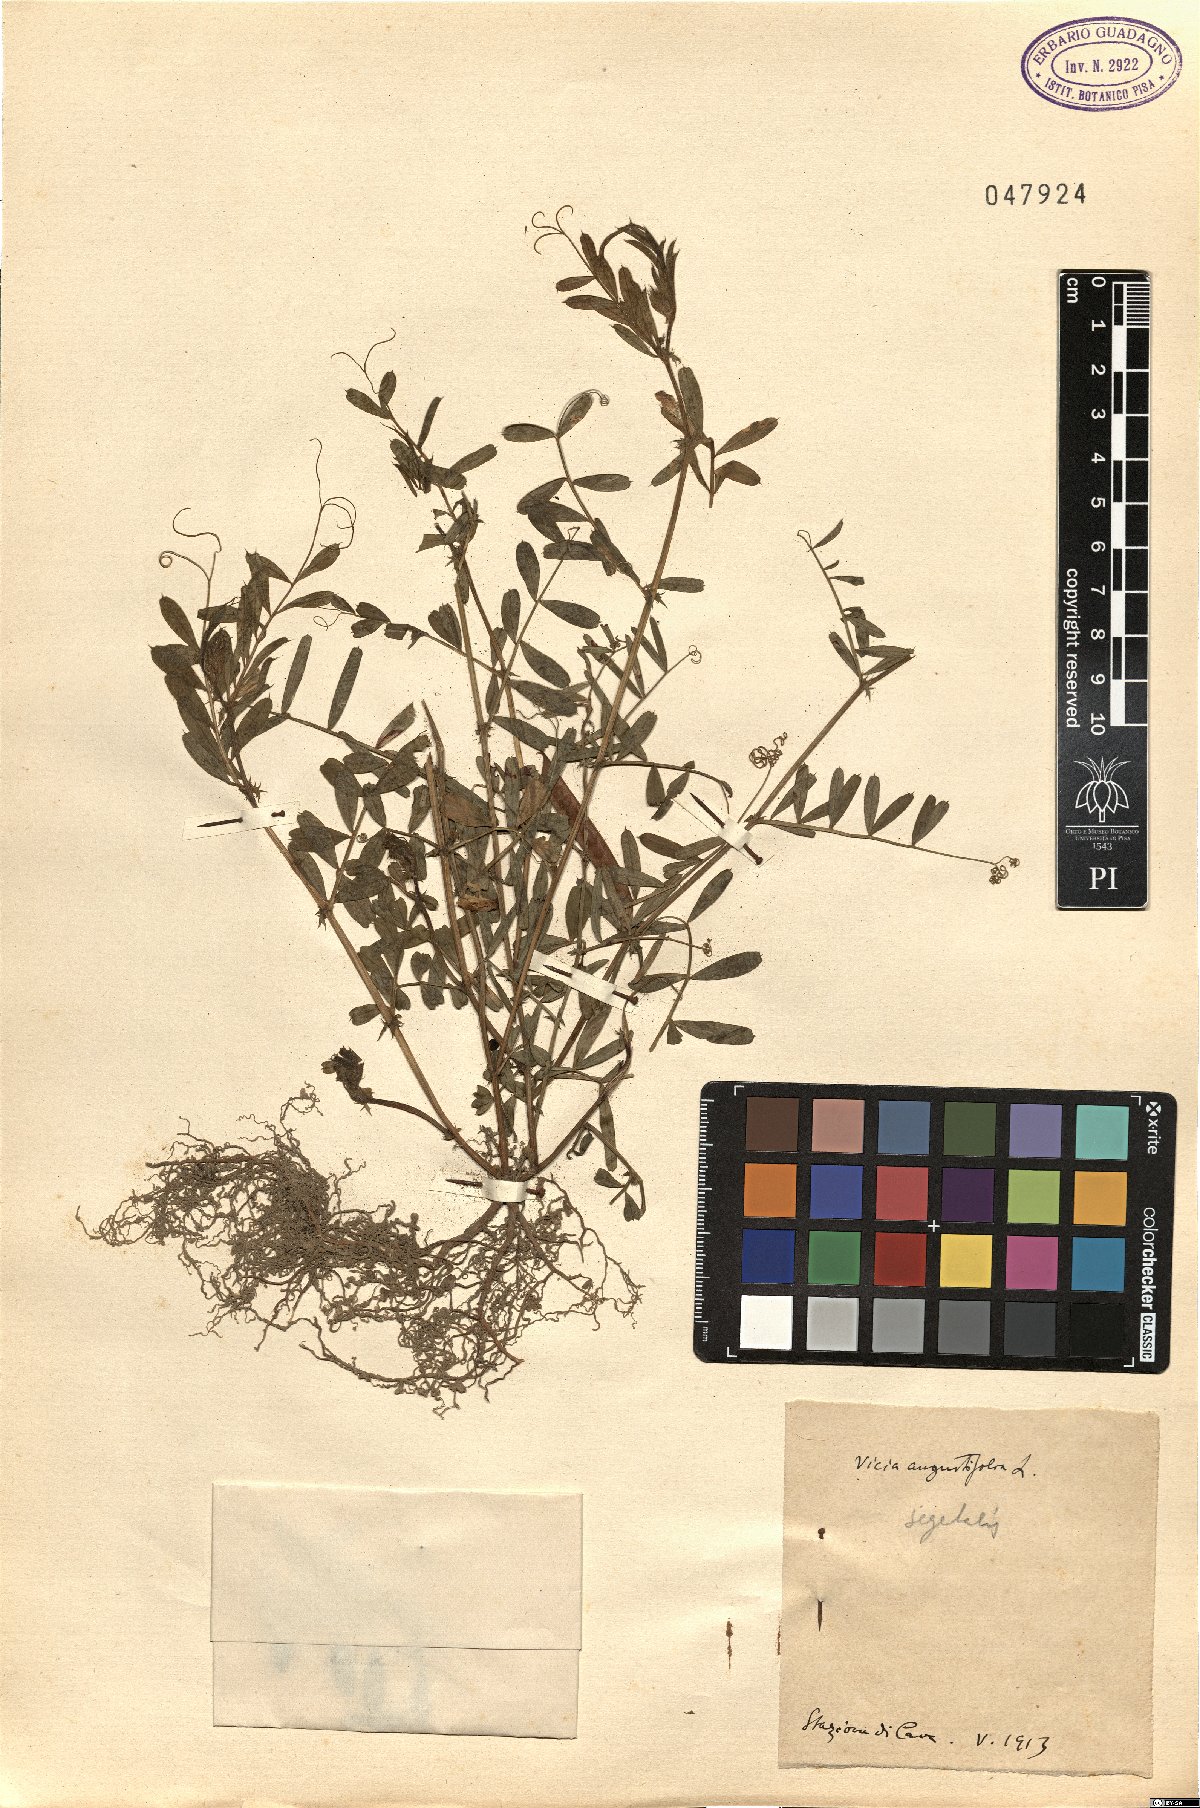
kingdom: Plantae
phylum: Tracheophyta
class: Magnoliopsida
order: Fabales
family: Fabaceae
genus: Vicia
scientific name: Vicia sativa
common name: Garden vetch
